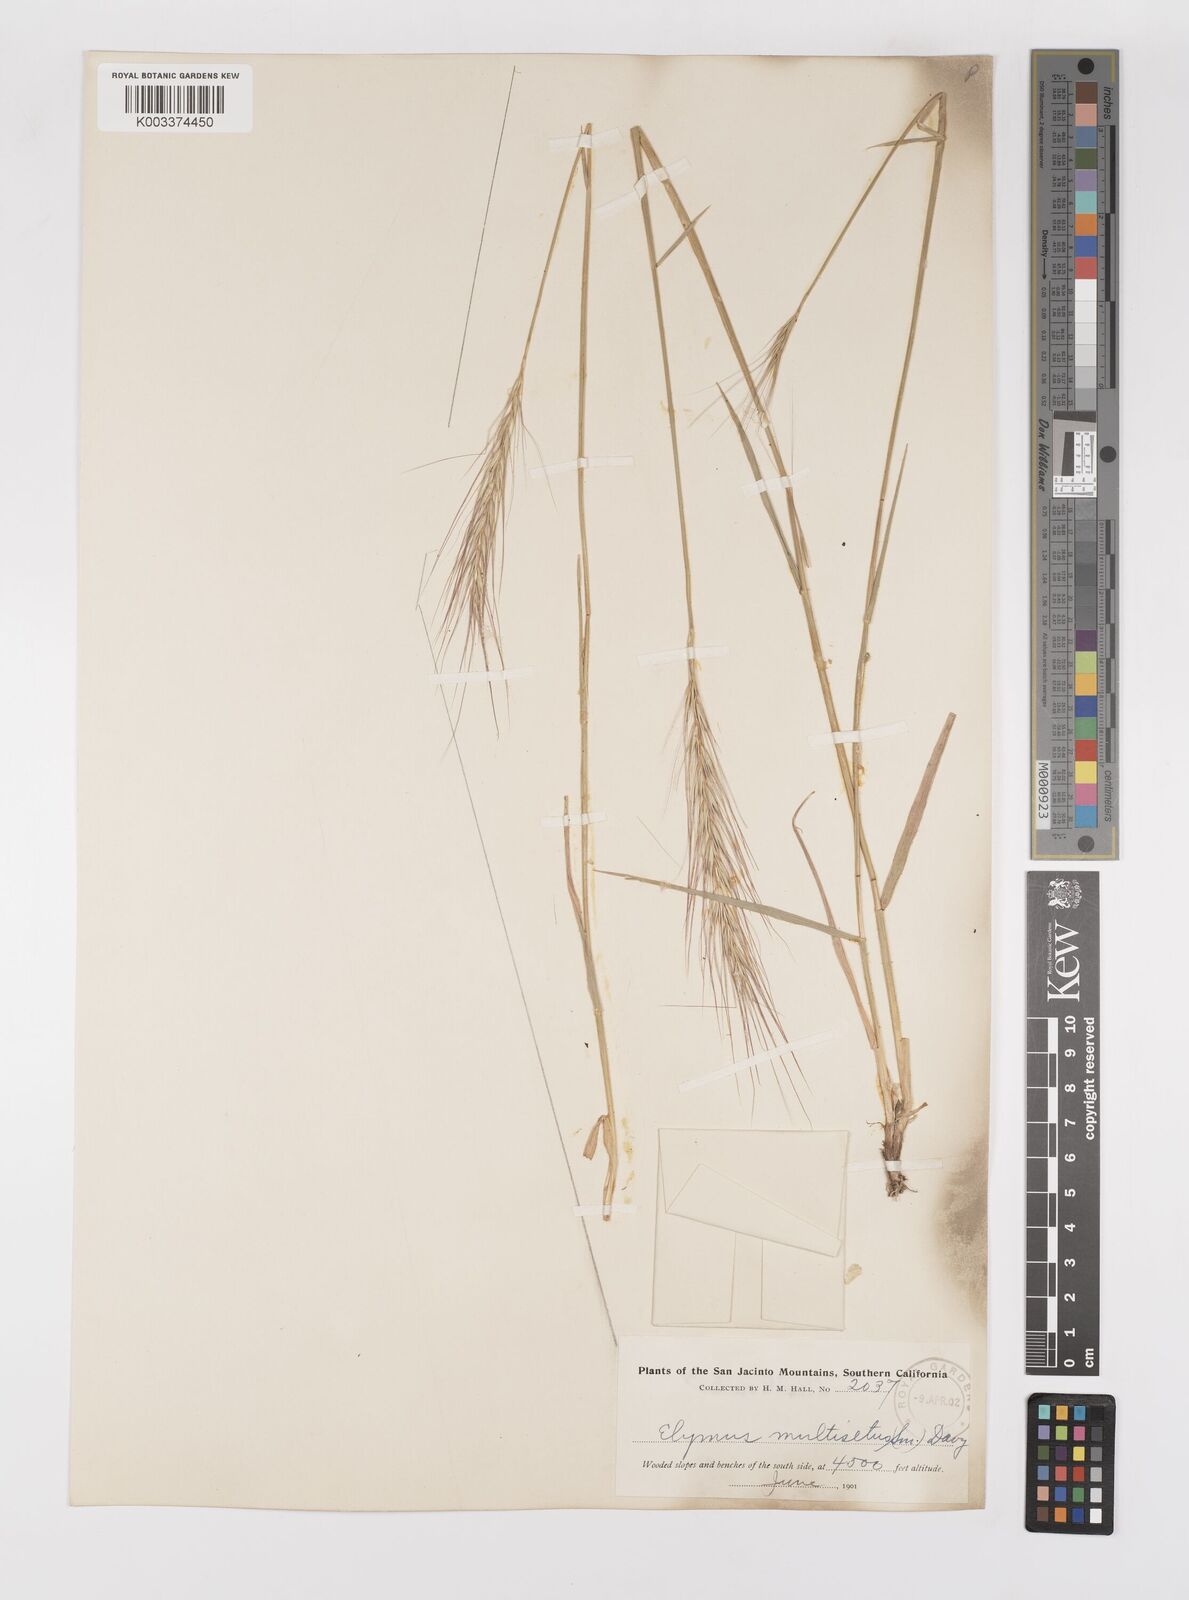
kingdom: Plantae
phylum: Tracheophyta
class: Liliopsida
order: Poales
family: Poaceae
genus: Elymus
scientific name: Elymus multisetus
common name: Big squirreltail
